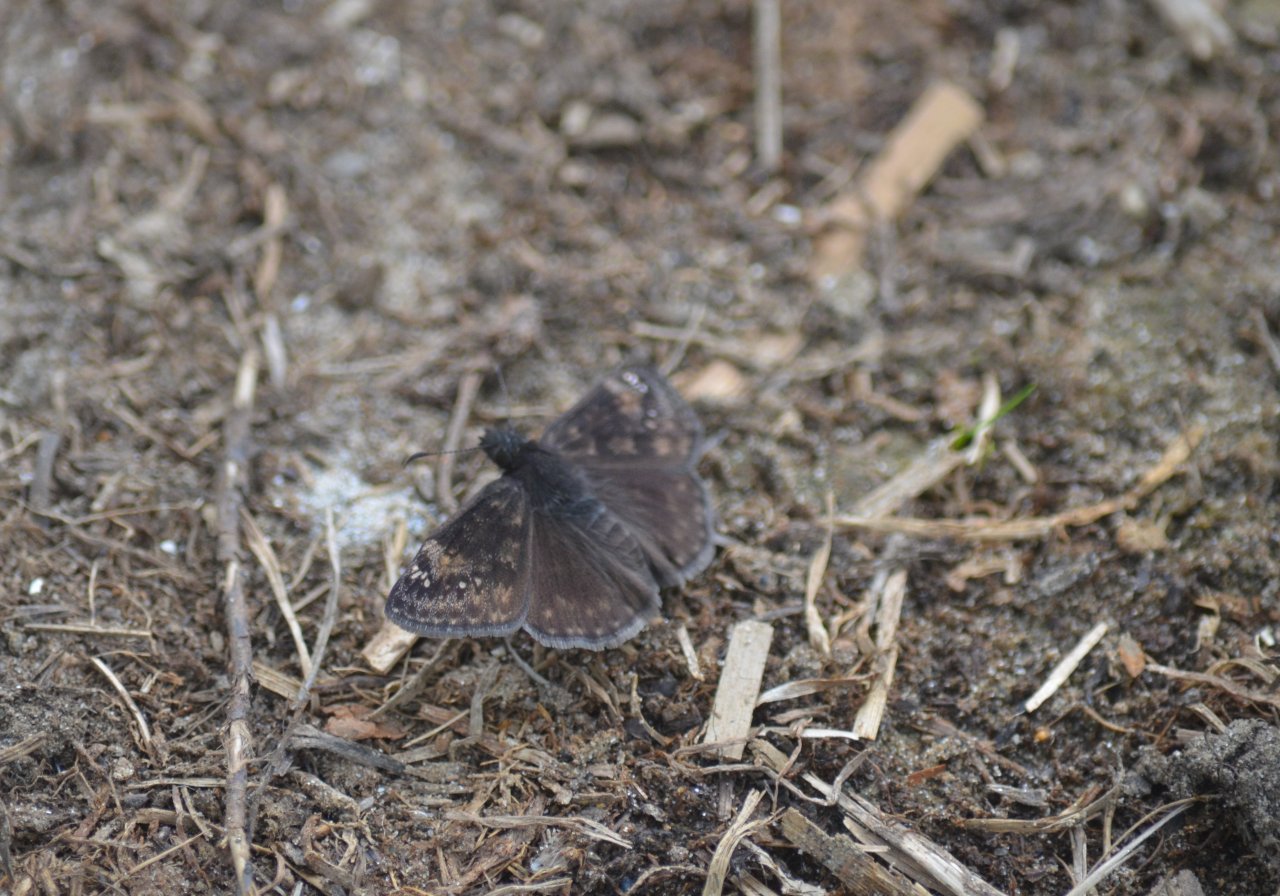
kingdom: Animalia
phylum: Arthropoda
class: Insecta
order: Lepidoptera
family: Hesperiidae
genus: Gesta
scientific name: Gesta
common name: Wild Indigo Duskywing
